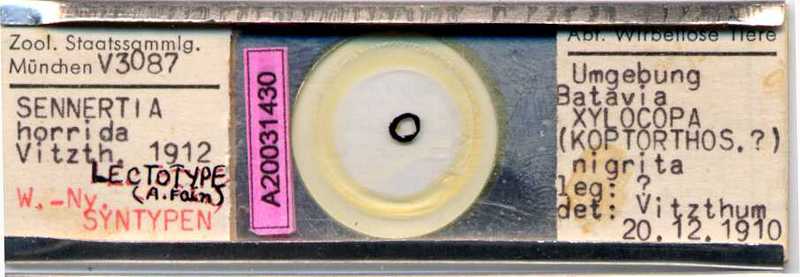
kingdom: Animalia
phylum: Arthropoda
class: Arachnida
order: Sarcoptiformes
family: Chaetodactylidae
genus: Sennertia
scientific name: Sennertia horrida
